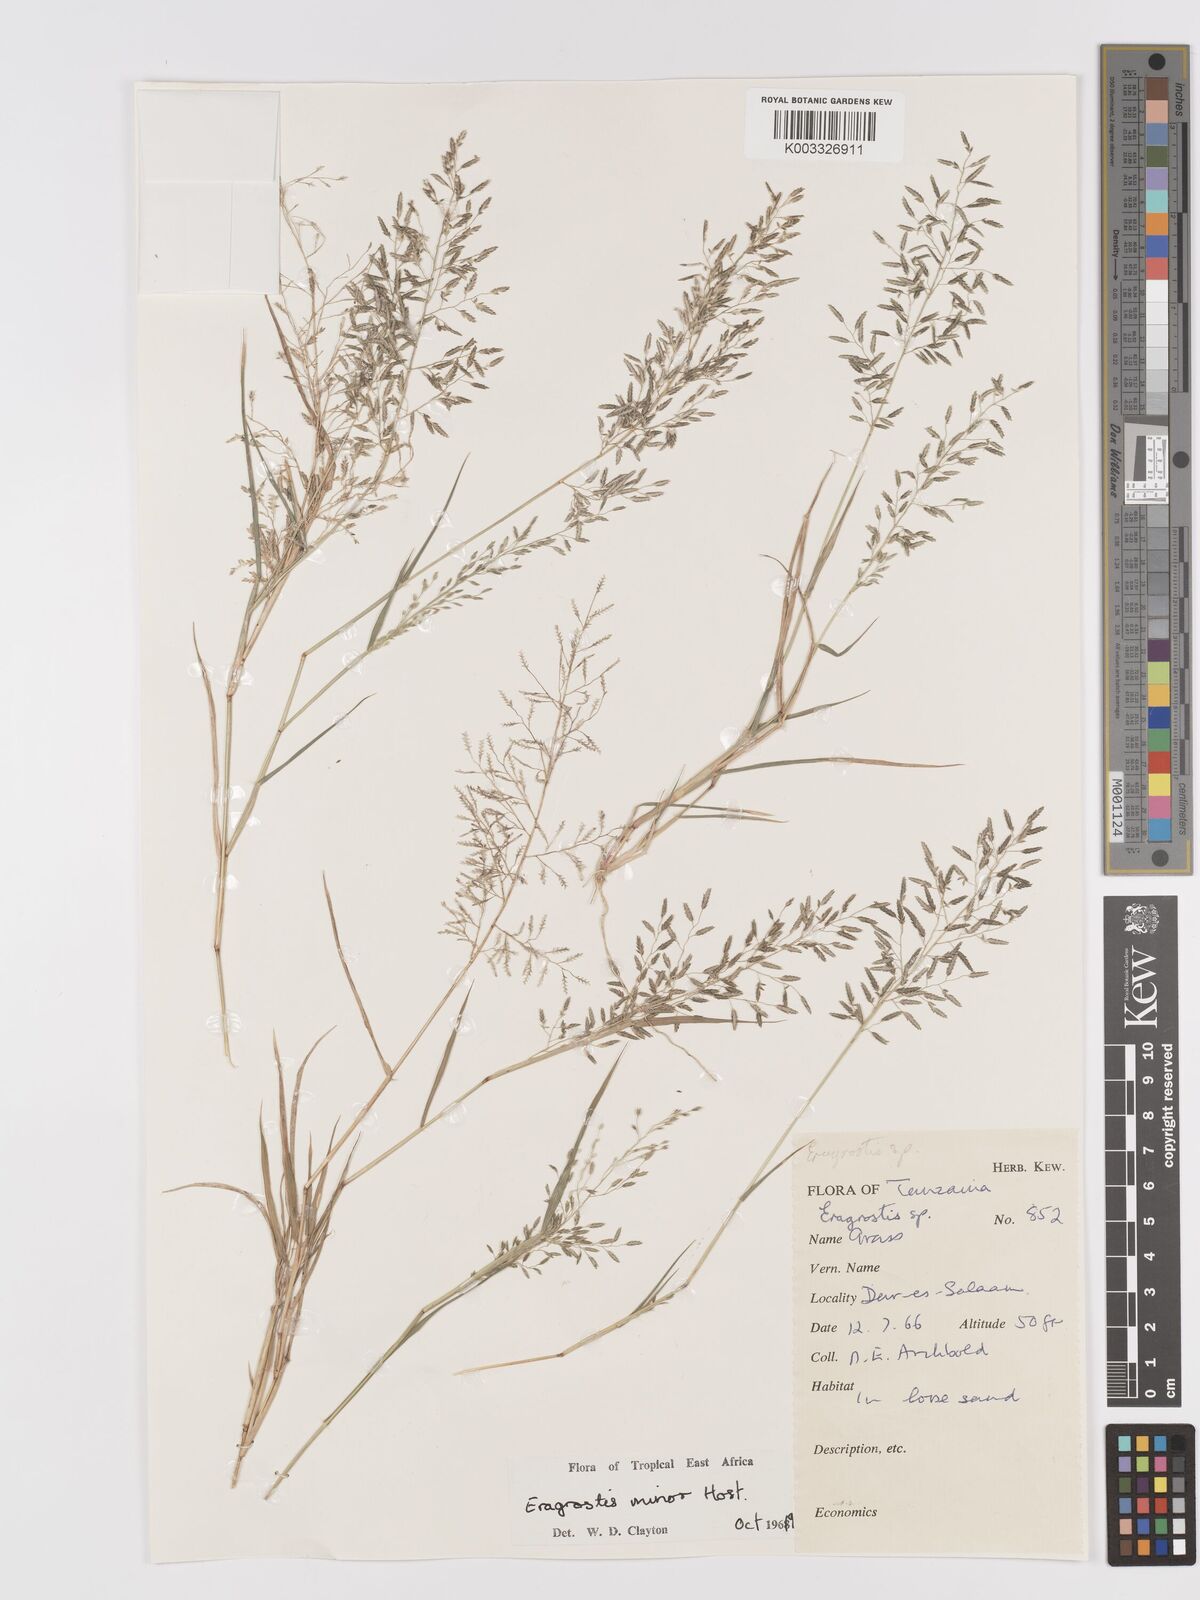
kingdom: Plantae
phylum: Tracheophyta
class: Liliopsida
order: Poales
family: Poaceae
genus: Eragrostis
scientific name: Eragrostis minor
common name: Small love-grass
